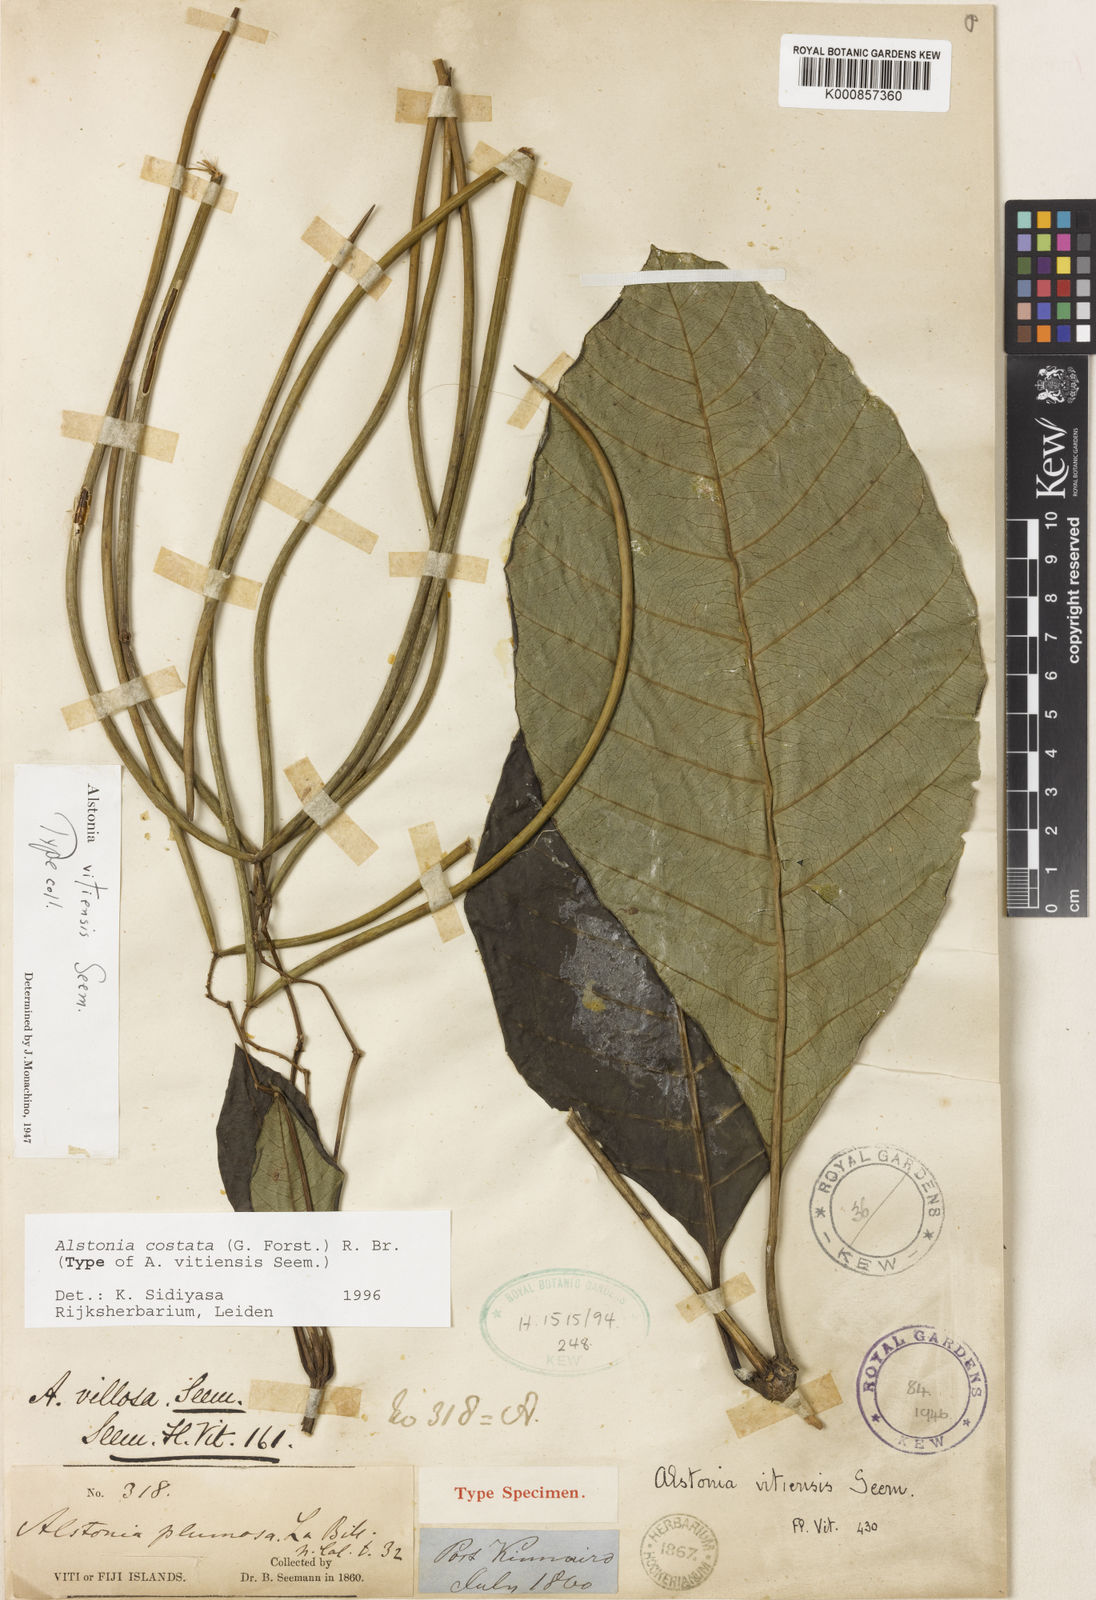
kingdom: Plantae
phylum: Tracheophyta
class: Magnoliopsida
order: Gentianales
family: Apocynaceae
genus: Alstonia
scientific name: Alstonia costata
